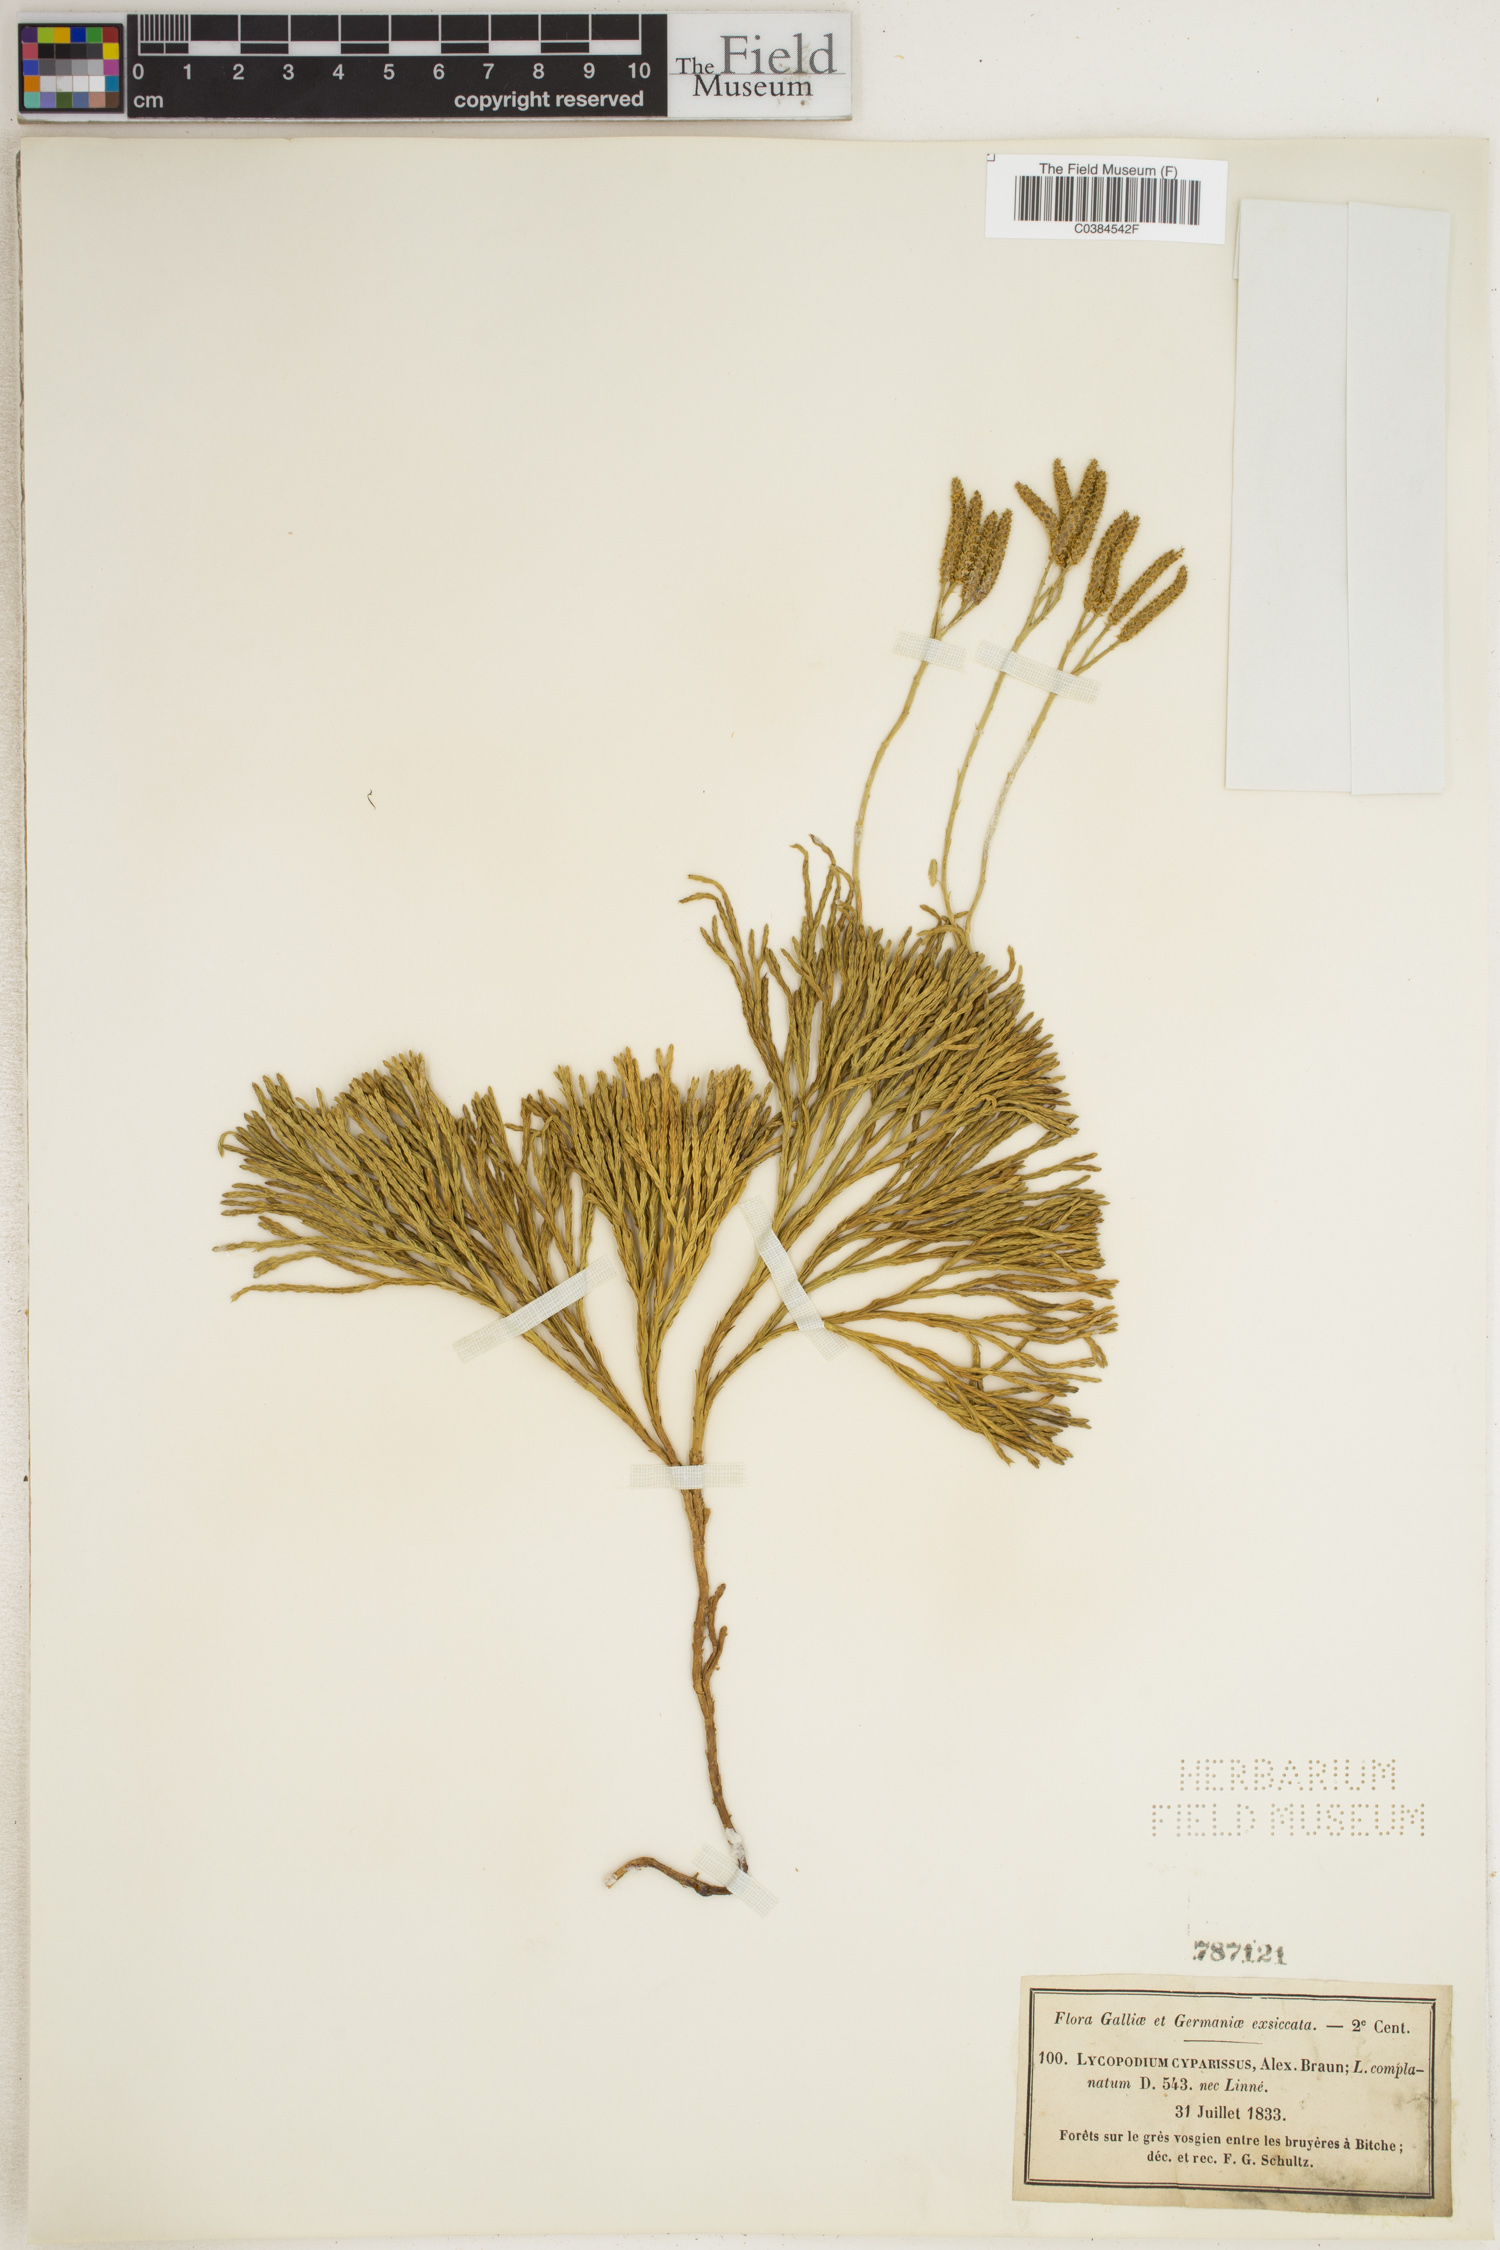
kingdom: Plantae
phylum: Tracheophyta
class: Lycopodiopsida
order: Lycopodiales
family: Lycopodiaceae
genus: Lycopodium
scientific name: Lycopodium
